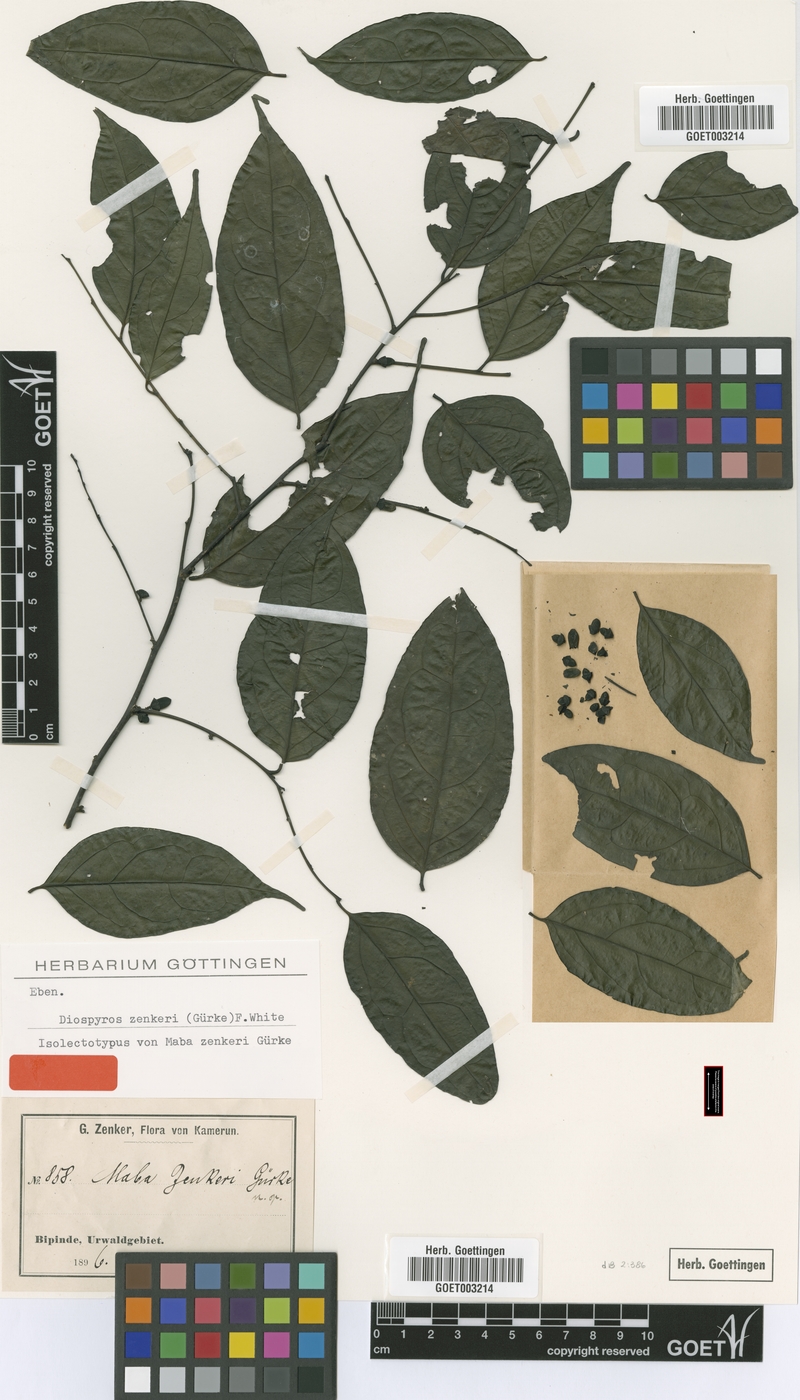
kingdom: Plantae
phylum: Tracheophyta
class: Magnoliopsida
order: Ericales
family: Ebenaceae
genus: Diospyros
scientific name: Diospyros zenkeri
